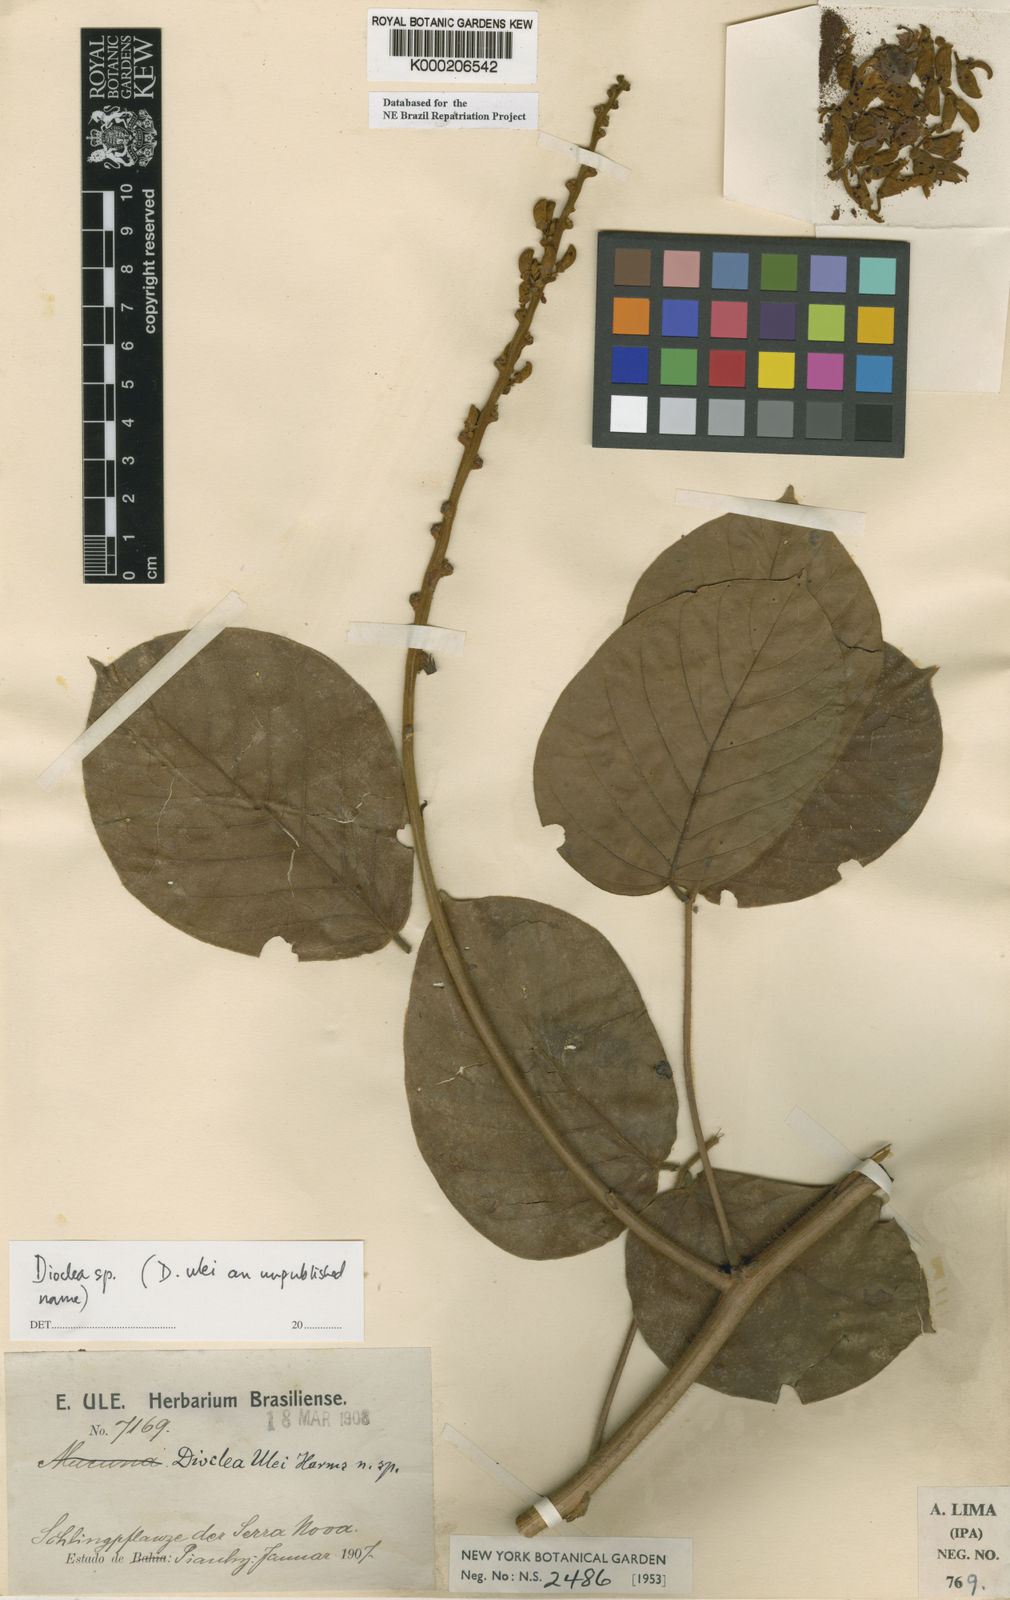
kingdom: Plantae
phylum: Tracheophyta
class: Magnoliopsida
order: Fabales
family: Fabaceae
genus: Dioclea
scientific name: Dioclea
